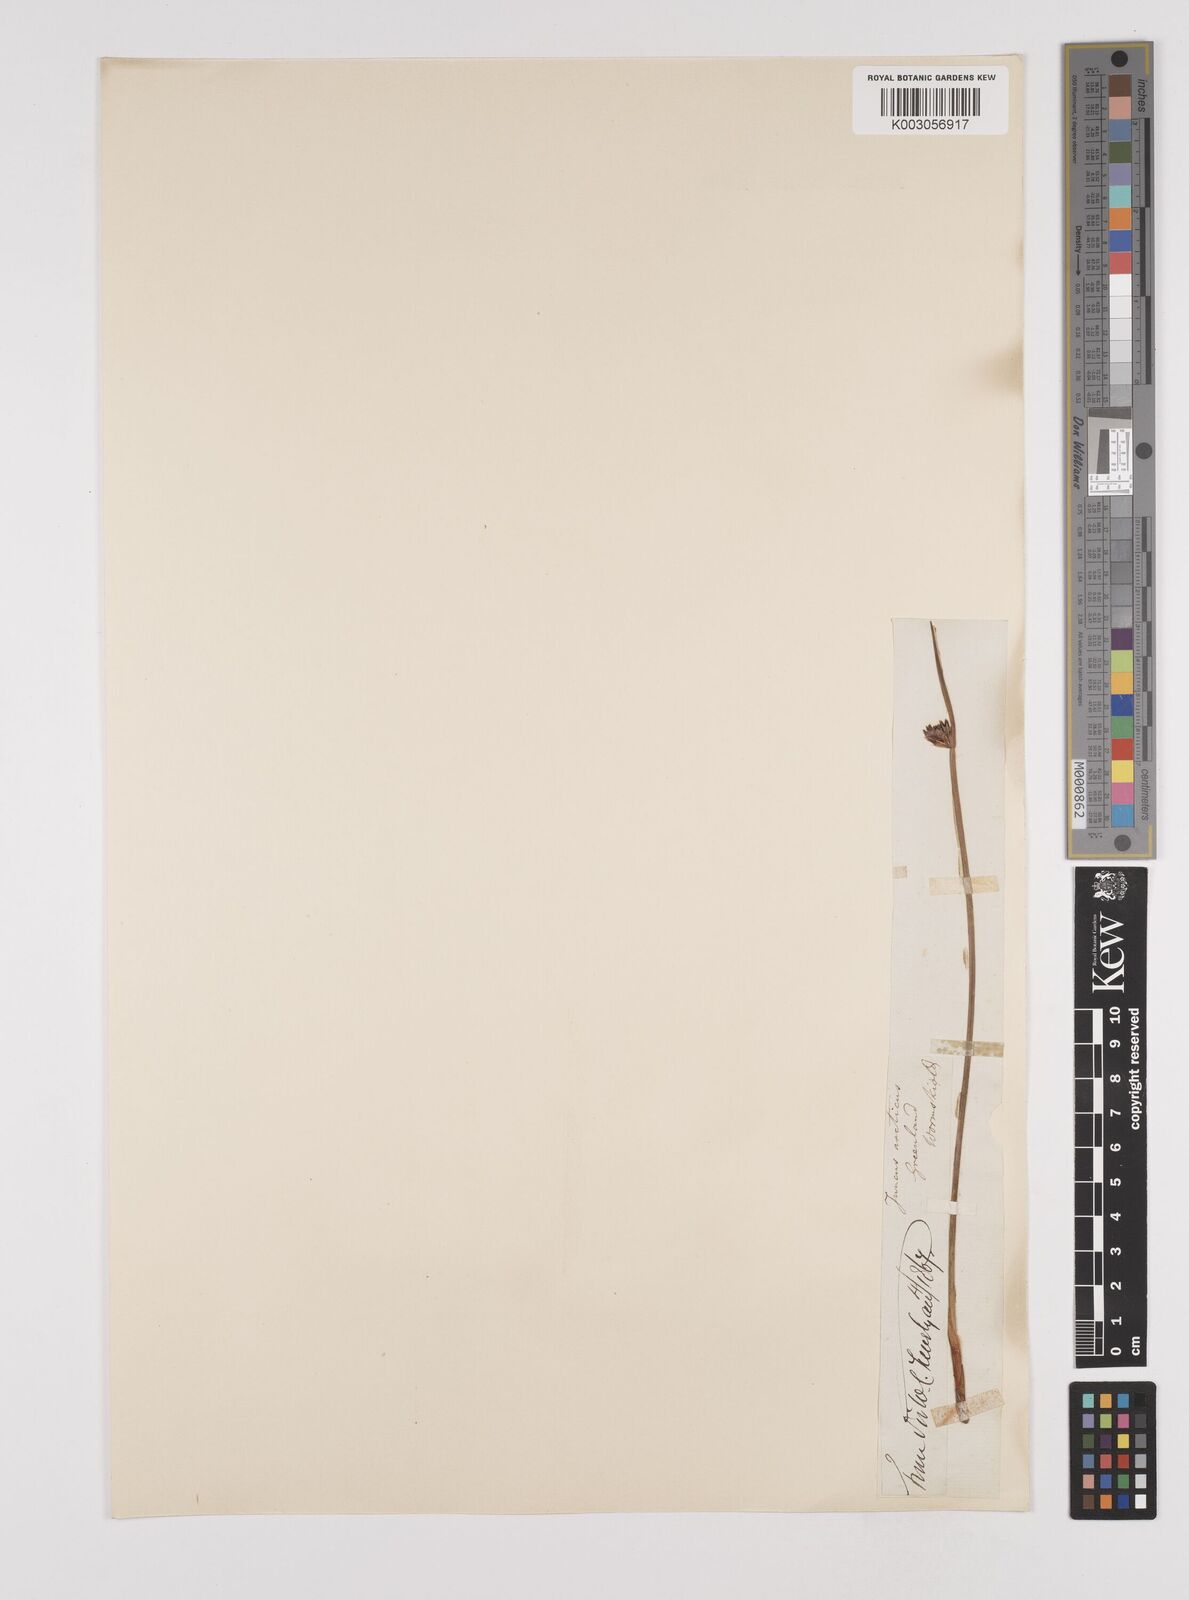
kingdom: Plantae
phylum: Tracheophyta
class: Liliopsida
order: Poales
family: Juncaceae
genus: Juncus
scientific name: Juncus arcticus
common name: Arctic rush
